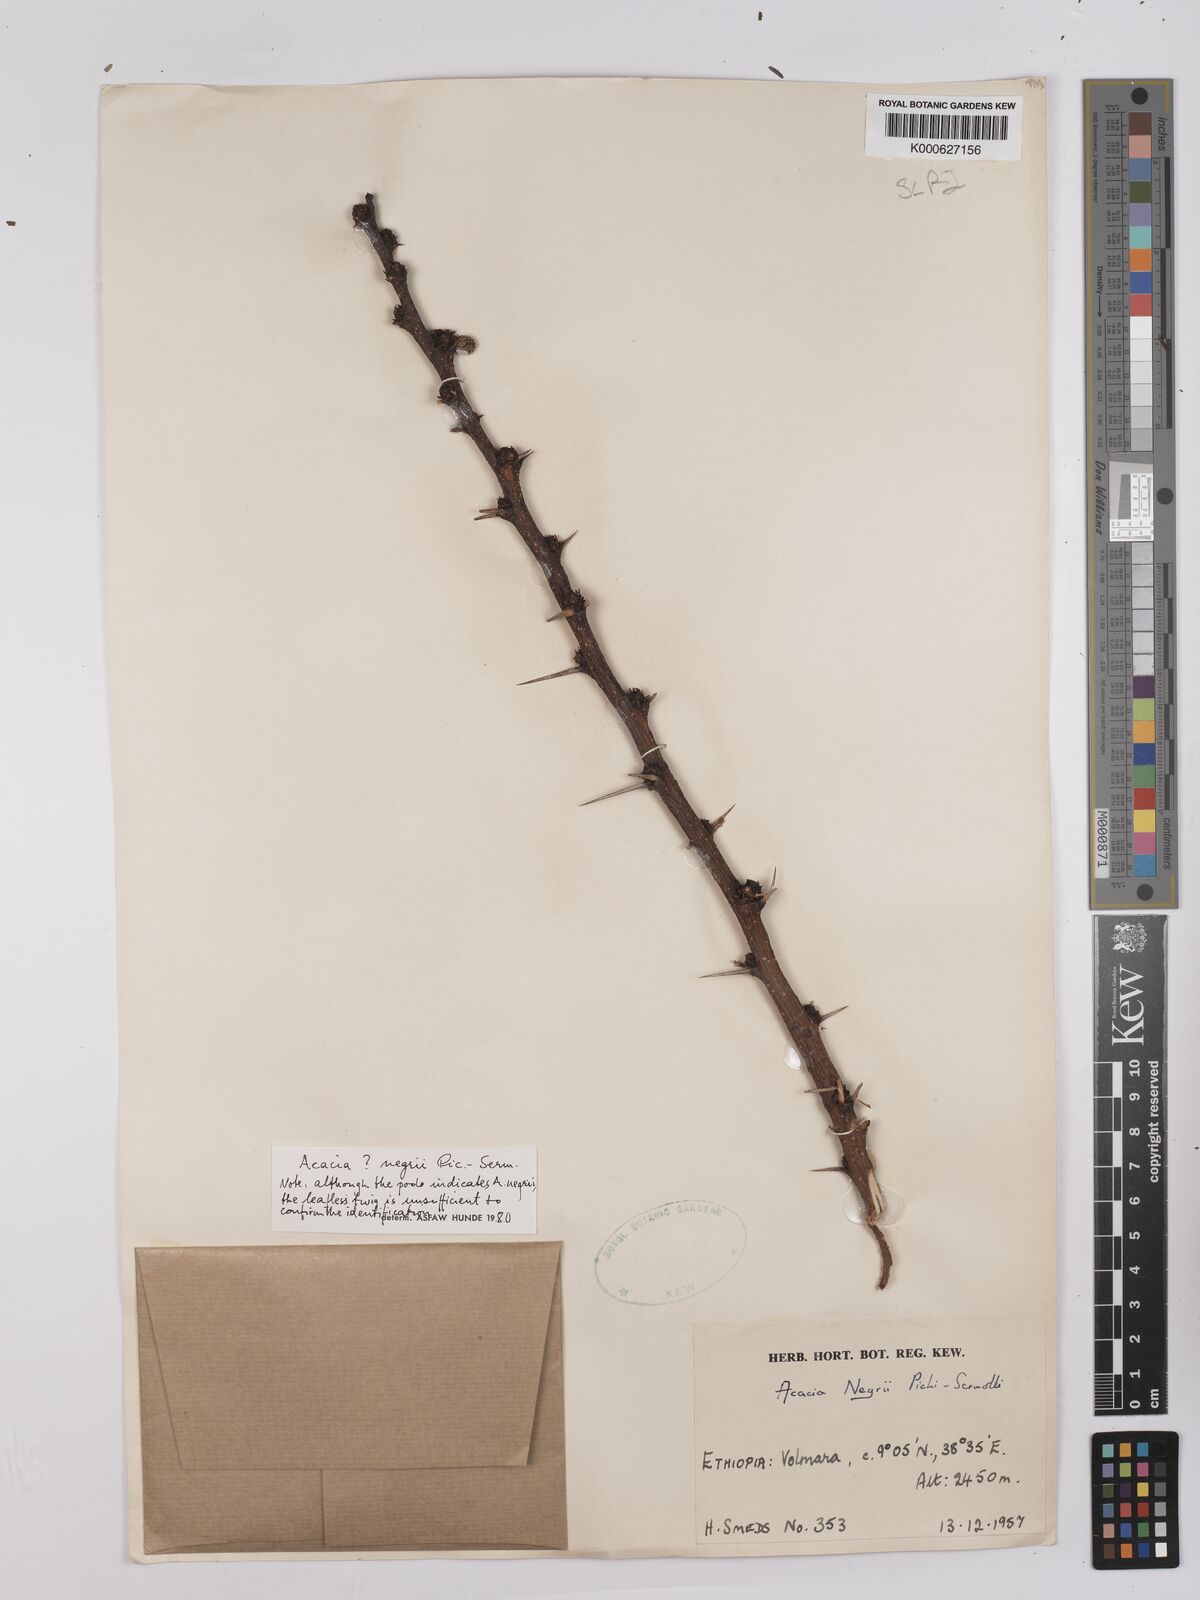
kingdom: Plantae
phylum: Tracheophyta
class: Magnoliopsida
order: Fabales
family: Fabaceae
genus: Vachellia
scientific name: Vachellia negrii
